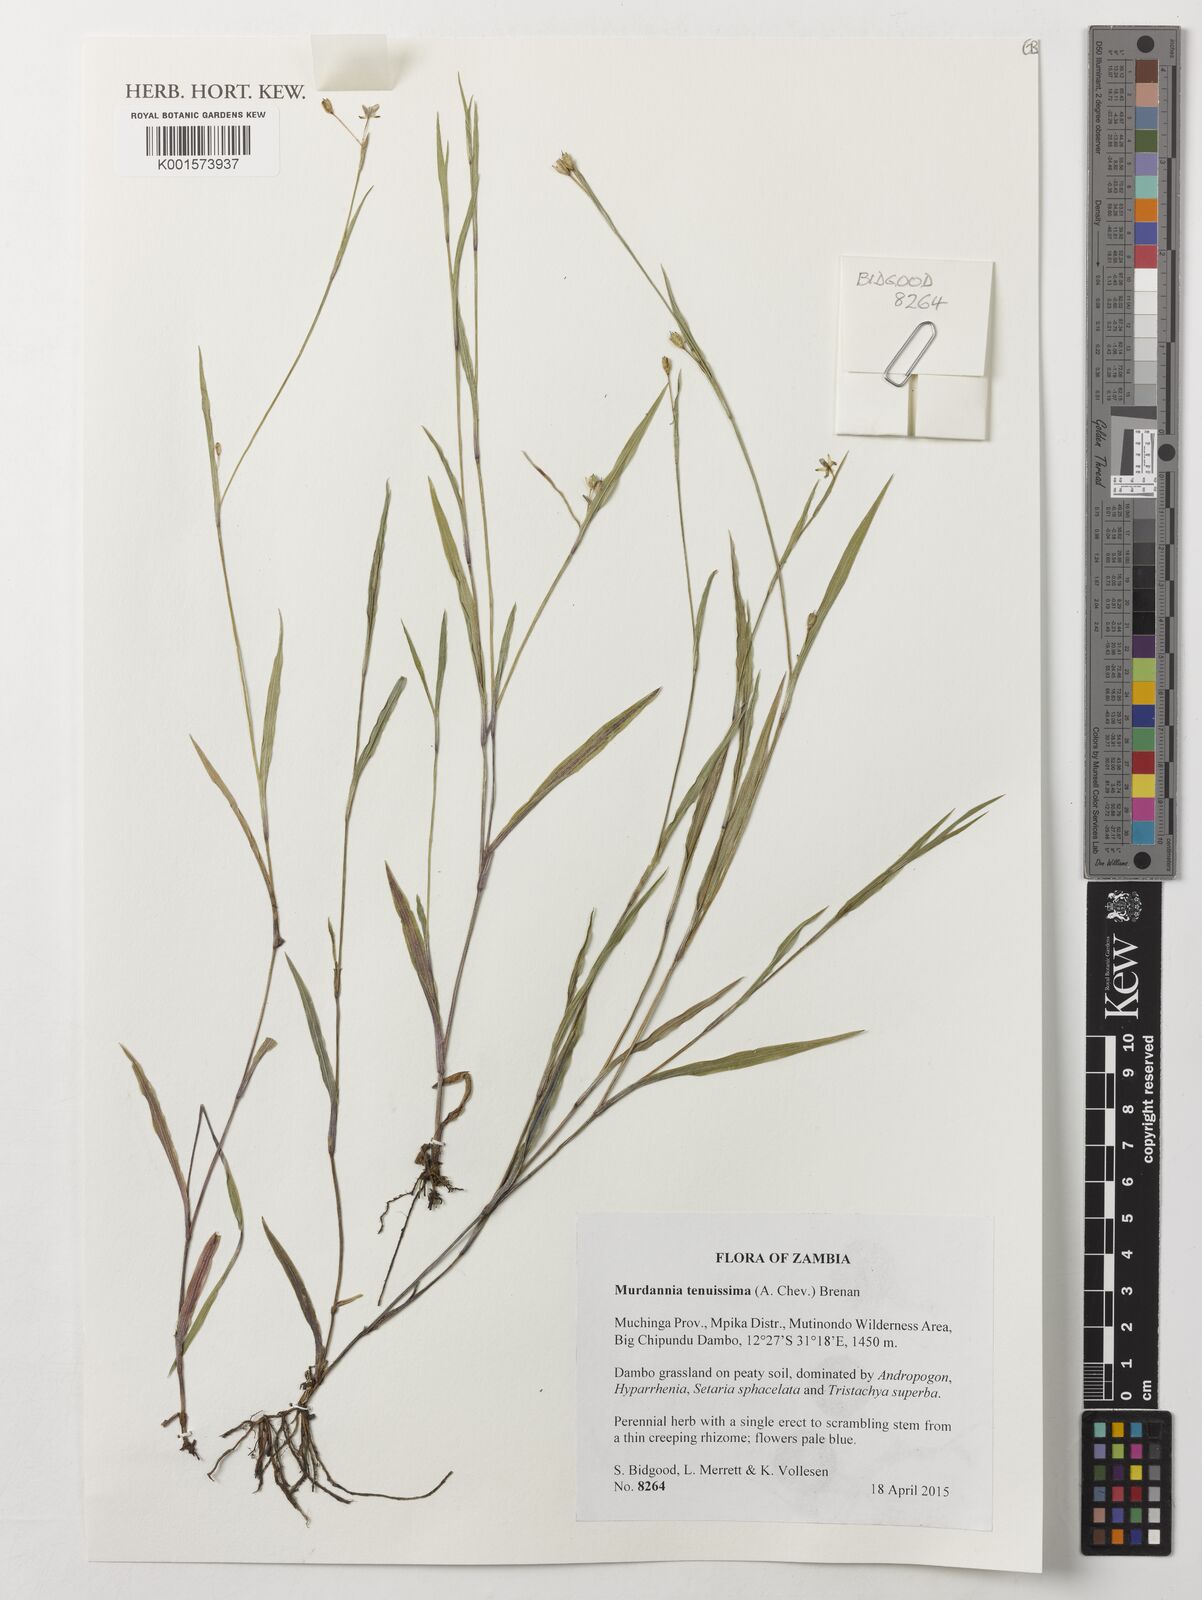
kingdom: Plantae
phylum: Tracheophyta
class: Liliopsida
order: Commelinales
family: Commelinaceae
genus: Murdannia
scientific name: Murdannia tenuissima
